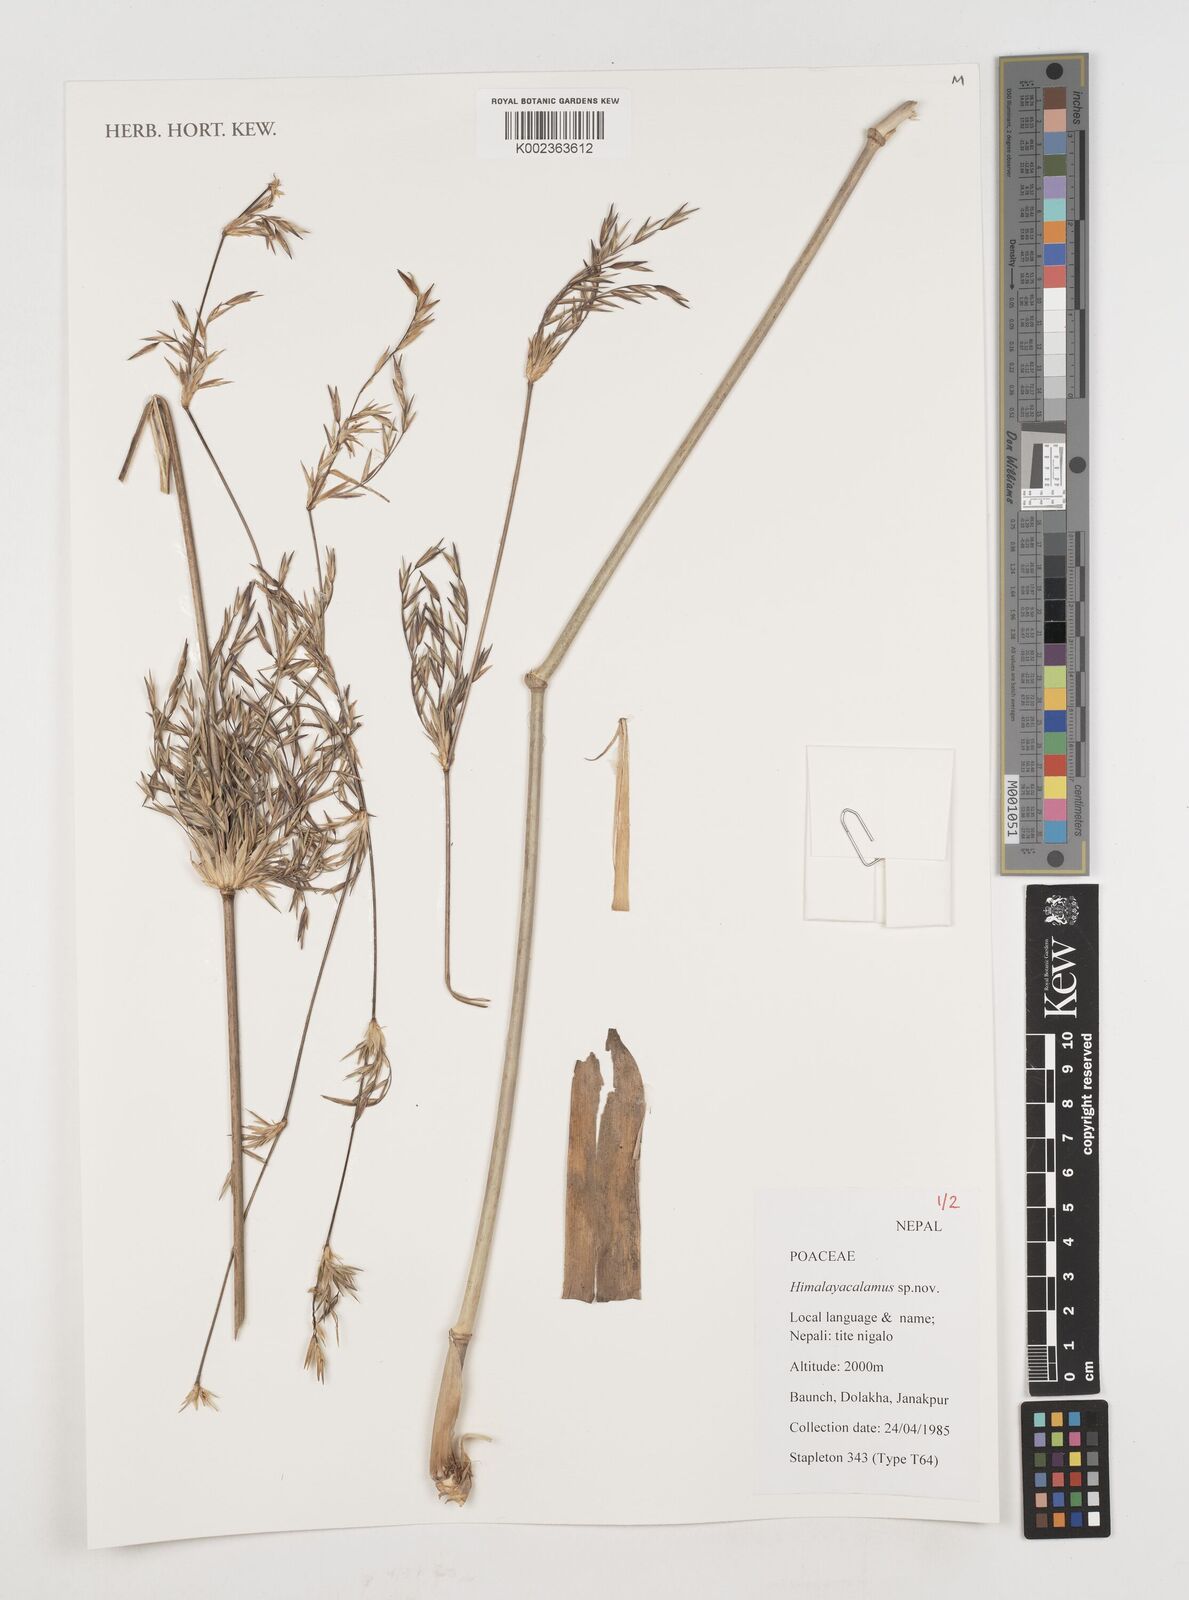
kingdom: Plantae
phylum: Tracheophyta
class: Liliopsida
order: Poales
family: Poaceae
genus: Himalayacalamus
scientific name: Himalayacalamus
